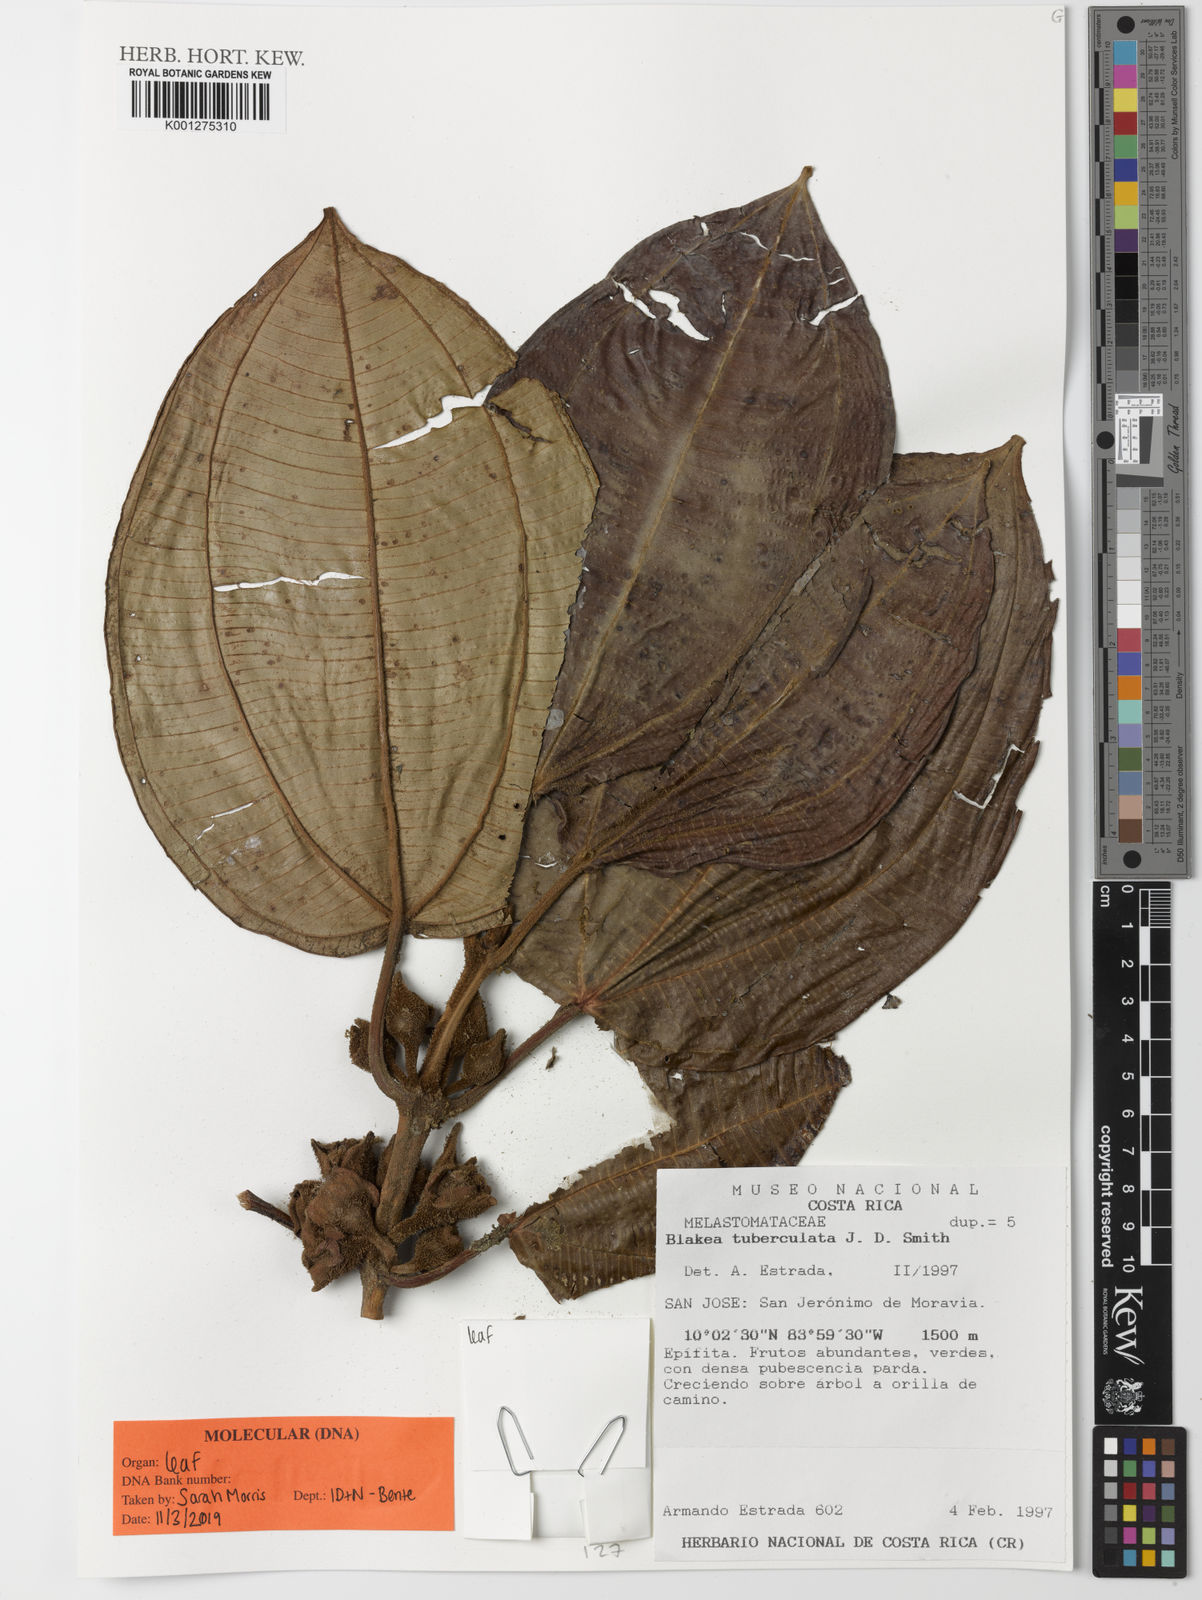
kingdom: Plantae
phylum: Tracheophyta
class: Magnoliopsida
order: Myrtales
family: Melastomataceae
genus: Blakea
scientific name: Blakea
